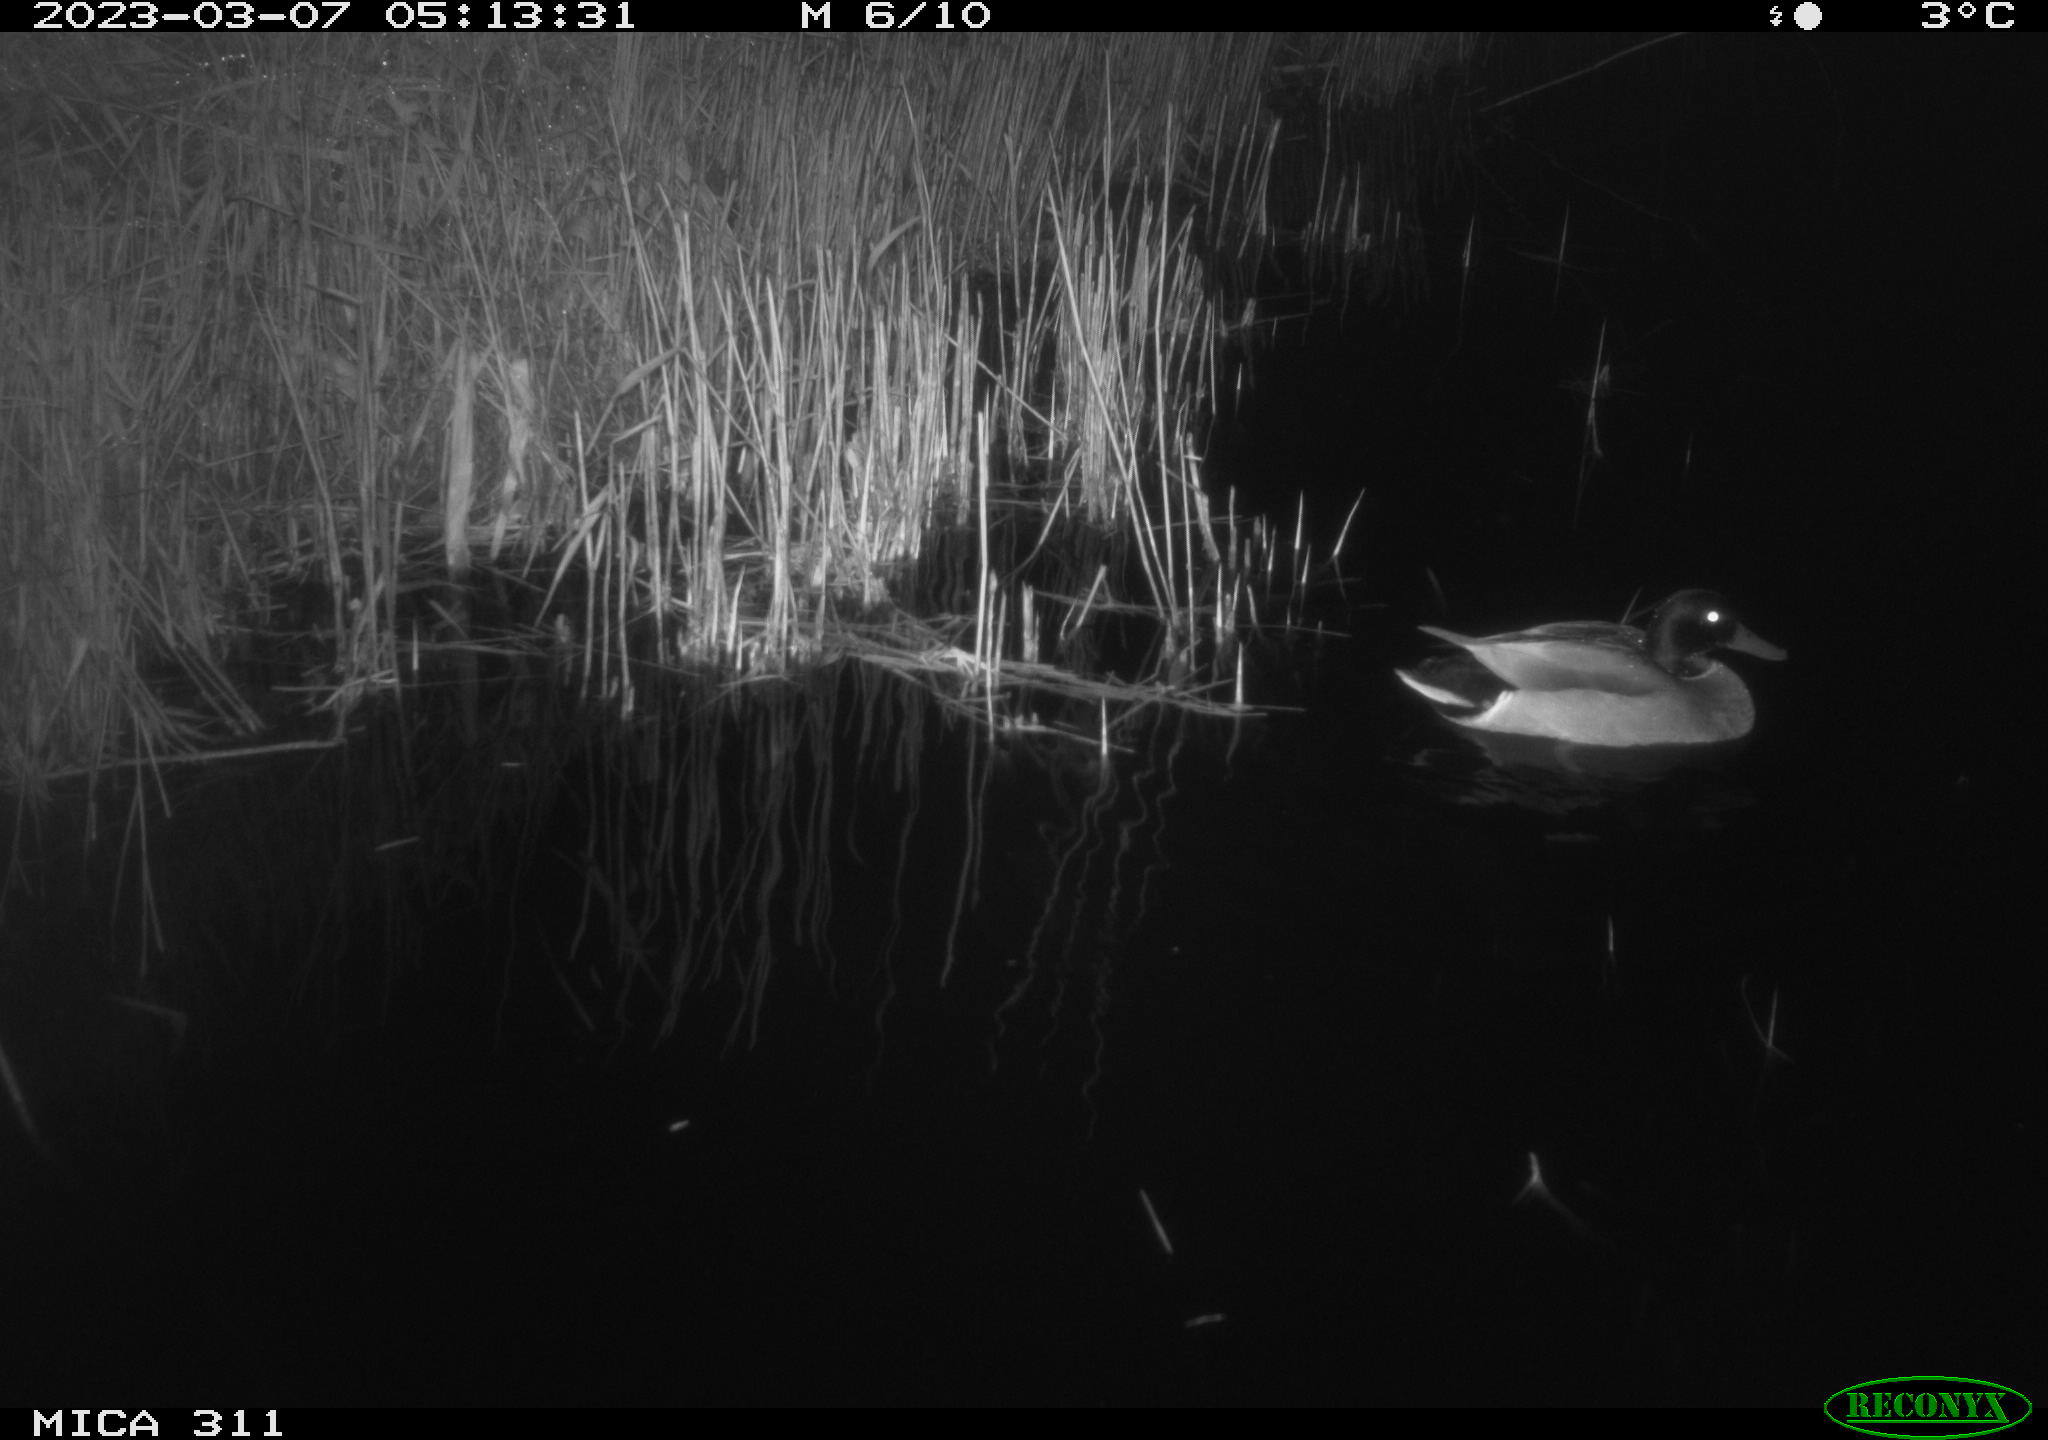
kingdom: Animalia
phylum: Chordata
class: Aves
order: Anseriformes
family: Anatidae
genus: Anas
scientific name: Anas
